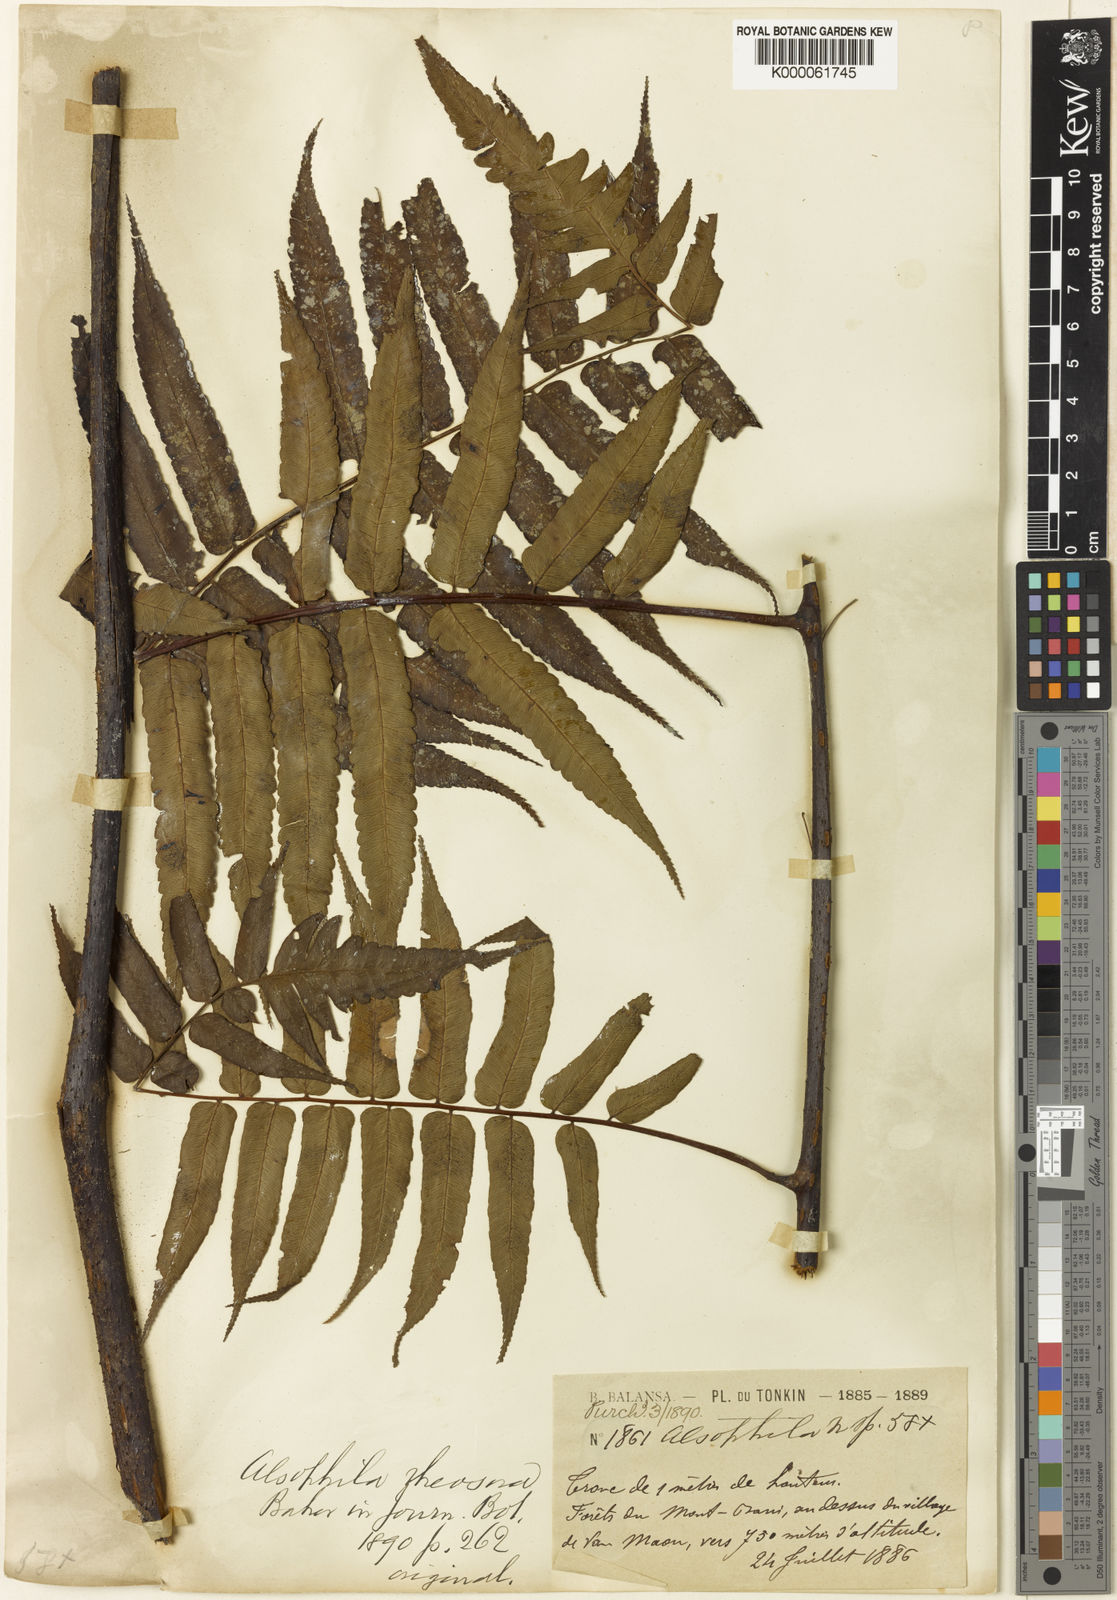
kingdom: Plantae
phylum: Tracheophyta
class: Polypodiopsida
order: Cyatheales
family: Cyatheaceae
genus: Gymnosphaera
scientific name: Gymnosphaera podophylla
